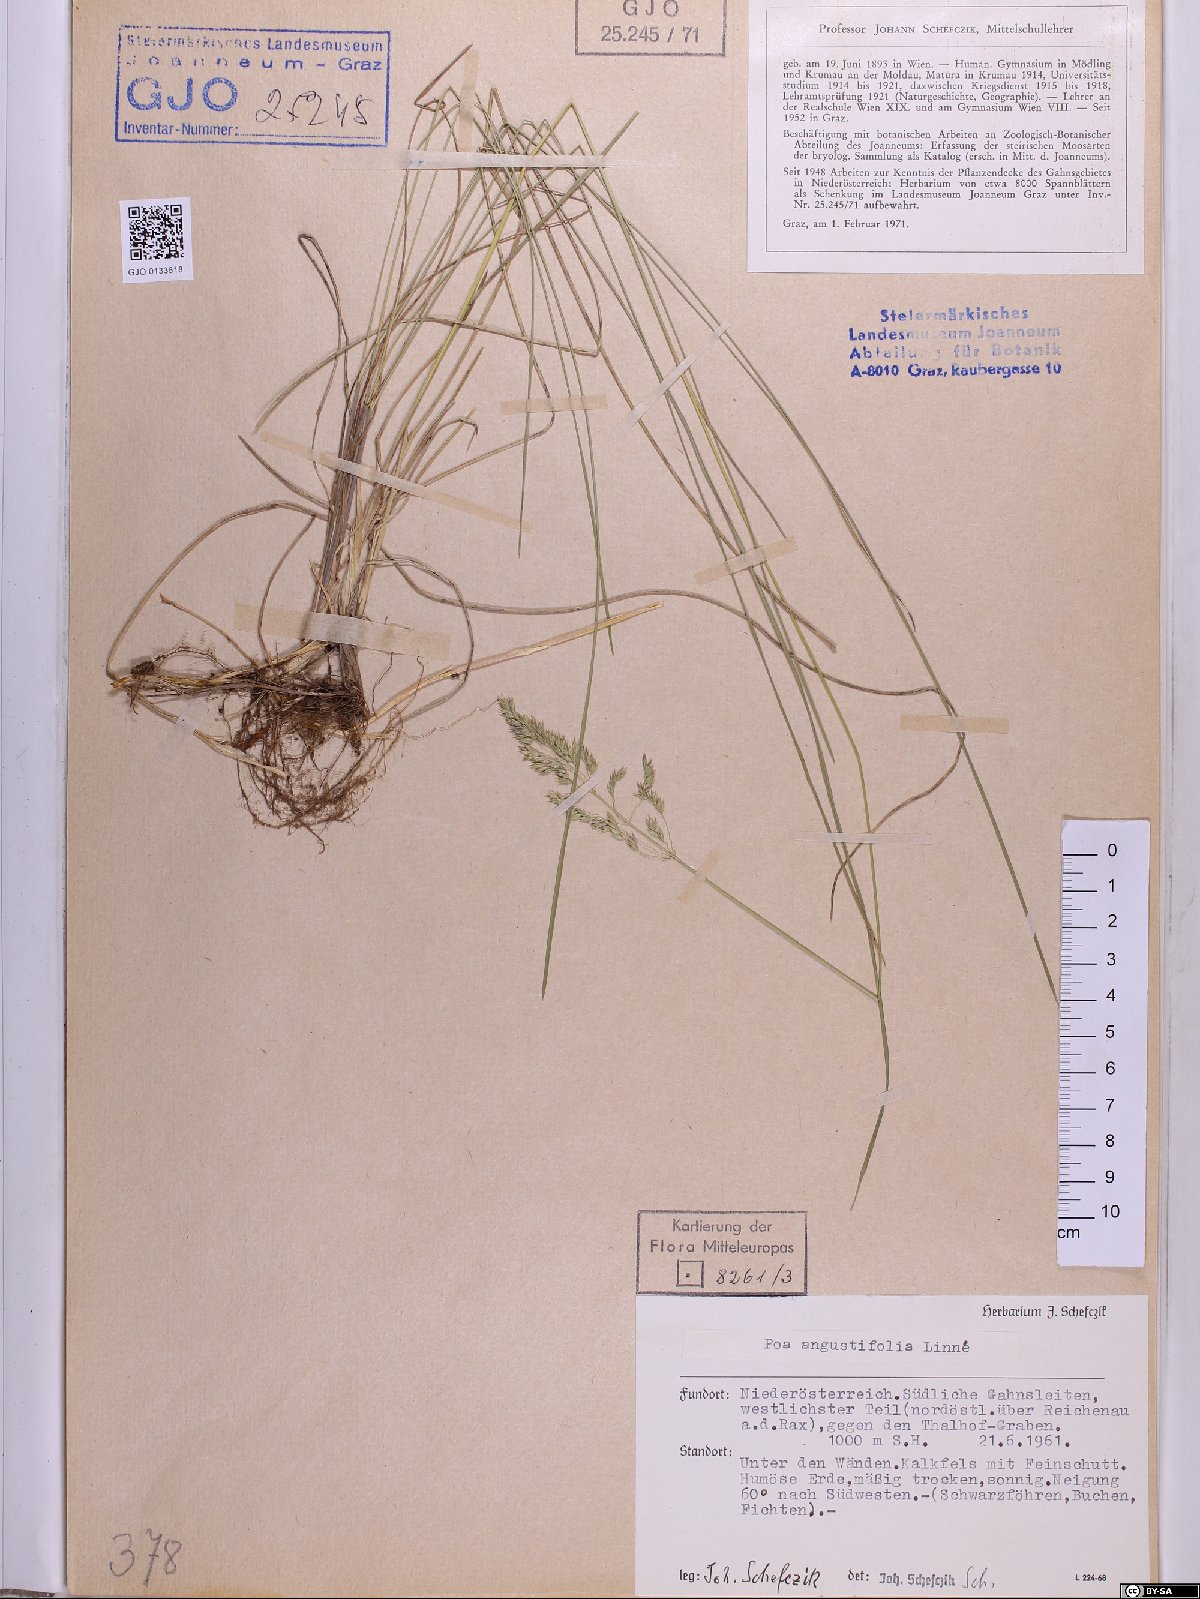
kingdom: Plantae
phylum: Tracheophyta
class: Liliopsida
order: Poales
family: Poaceae
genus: Poa
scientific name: Poa angustifolia
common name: Narrow-leaved meadow-grass
